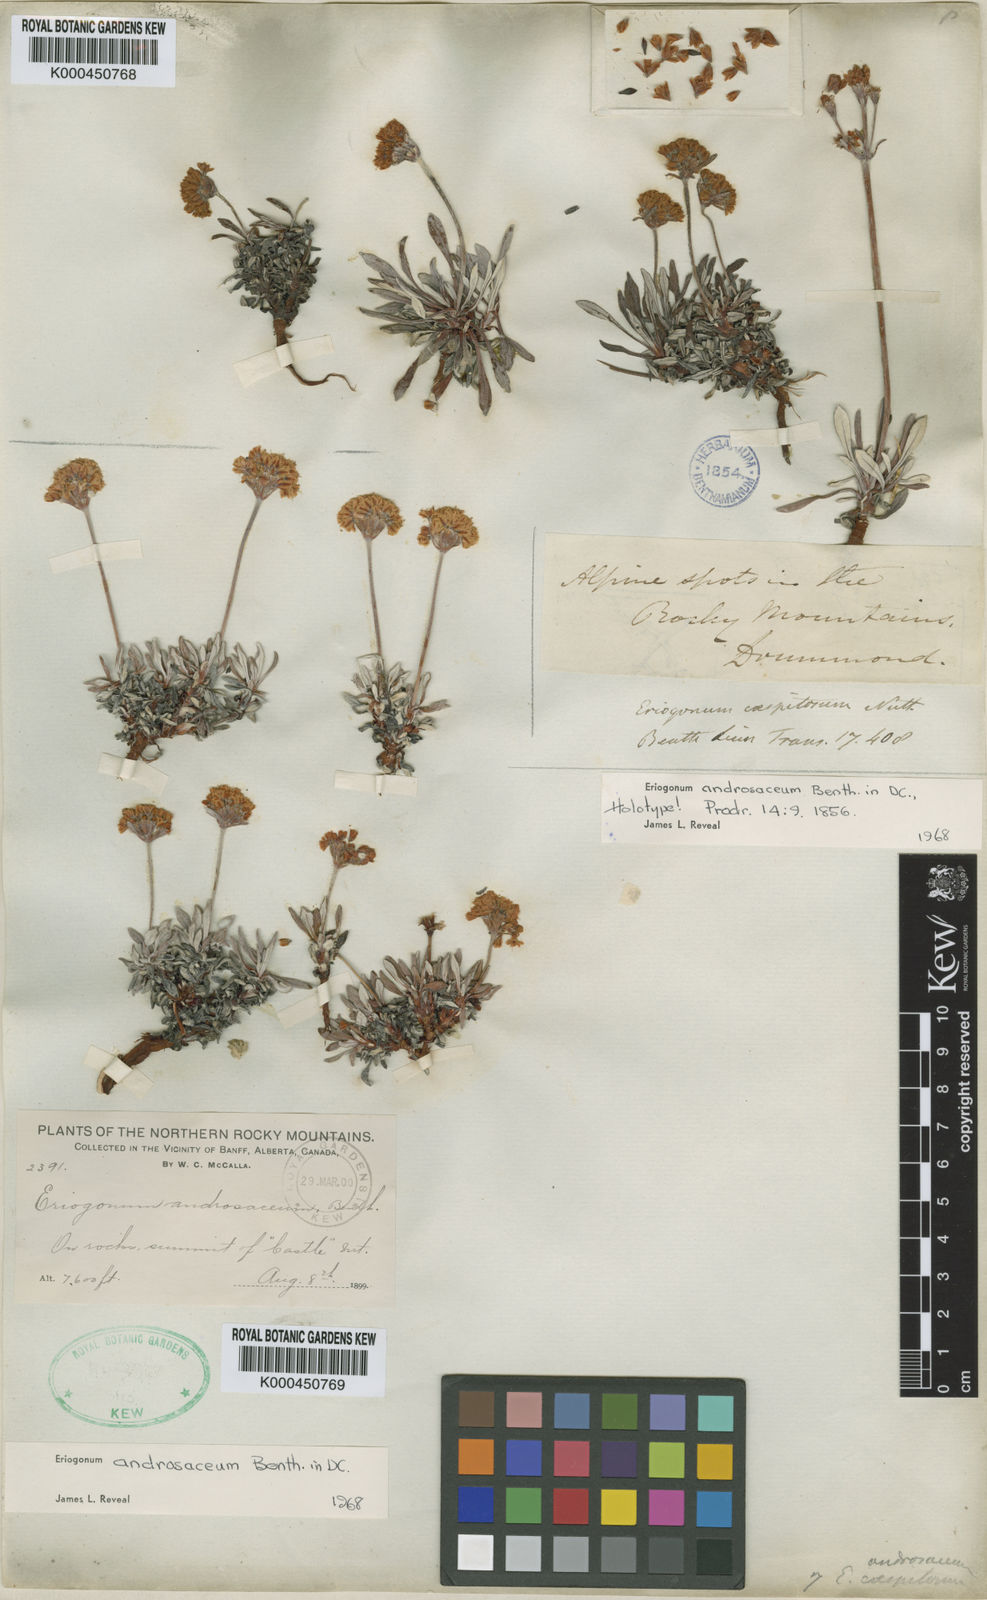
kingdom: Plantae
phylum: Tracheophyta
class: Magnoliopsida
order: Caryophyllales
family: Polygonaceae
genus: Eriogonum
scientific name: Eriogonum androsaceum
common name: Rock-jasmine wild buckwheat
